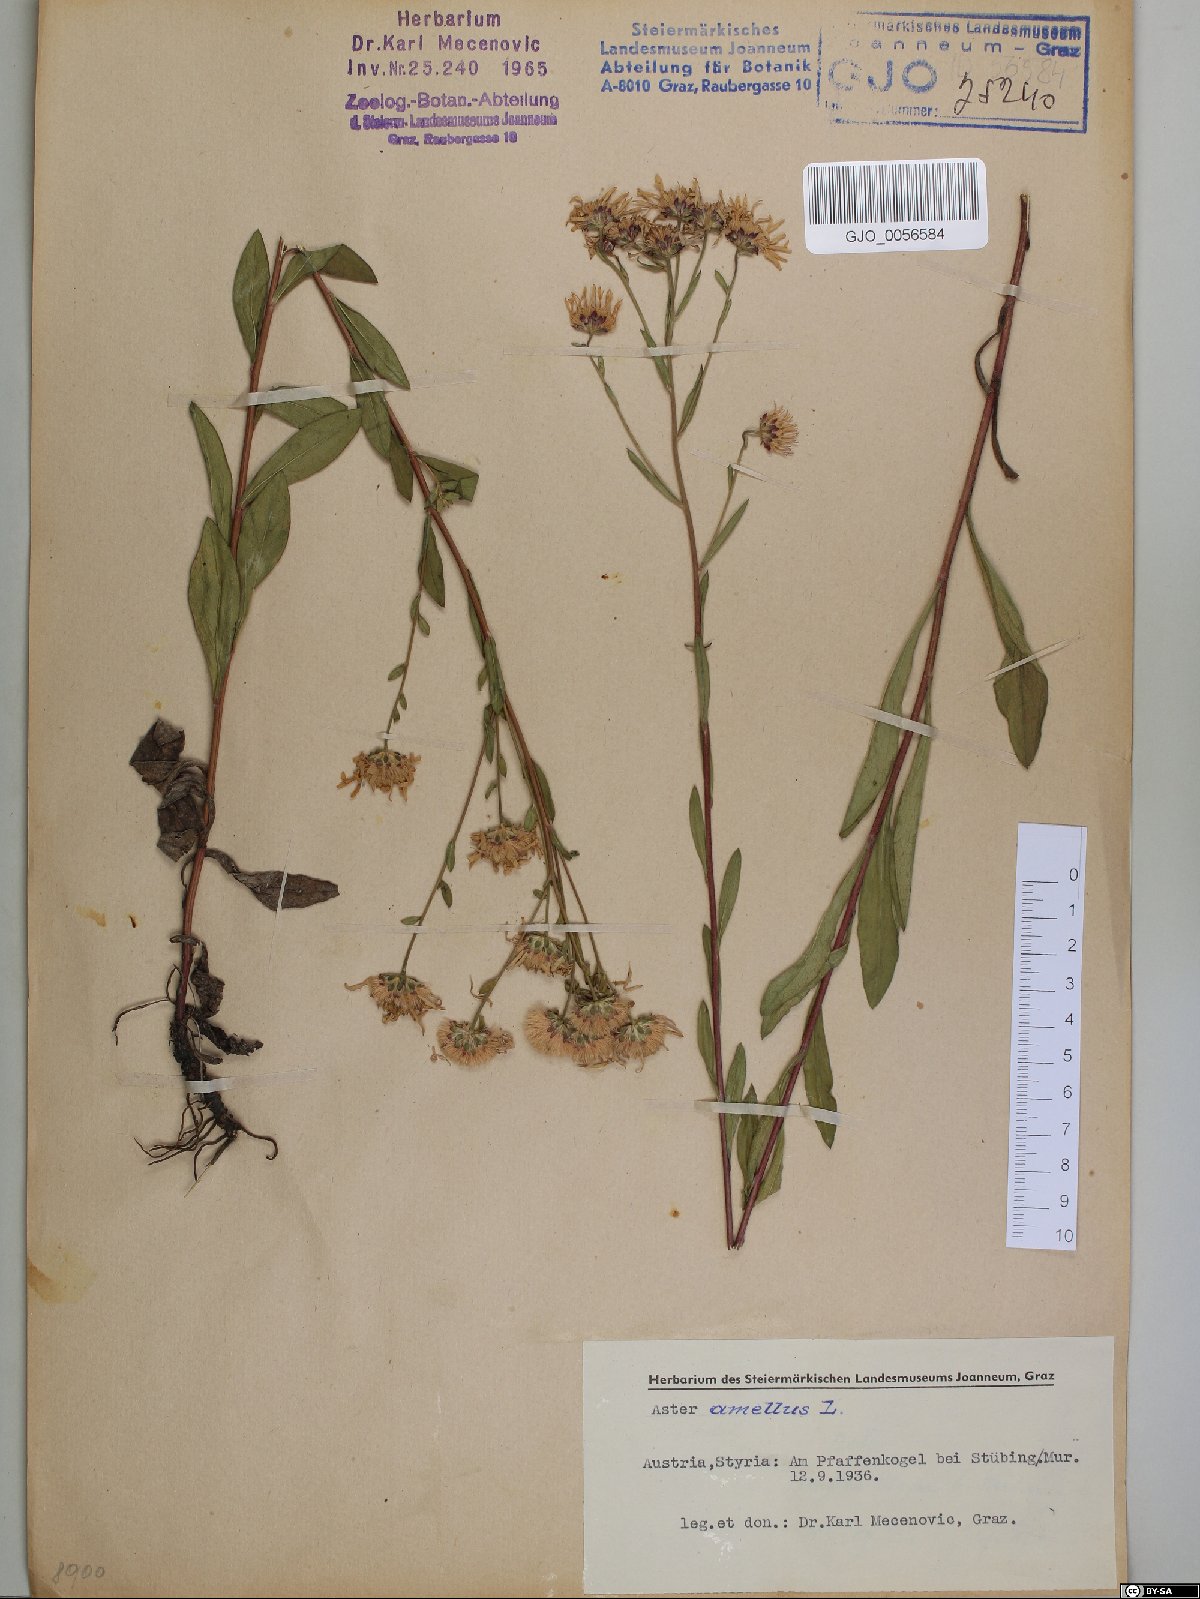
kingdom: Plantae
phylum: Tracheophyta
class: Magnoliopsida
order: Asterales
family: Asteraceae
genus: Aster
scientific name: Aster amellus
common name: European michaelmas daisy
